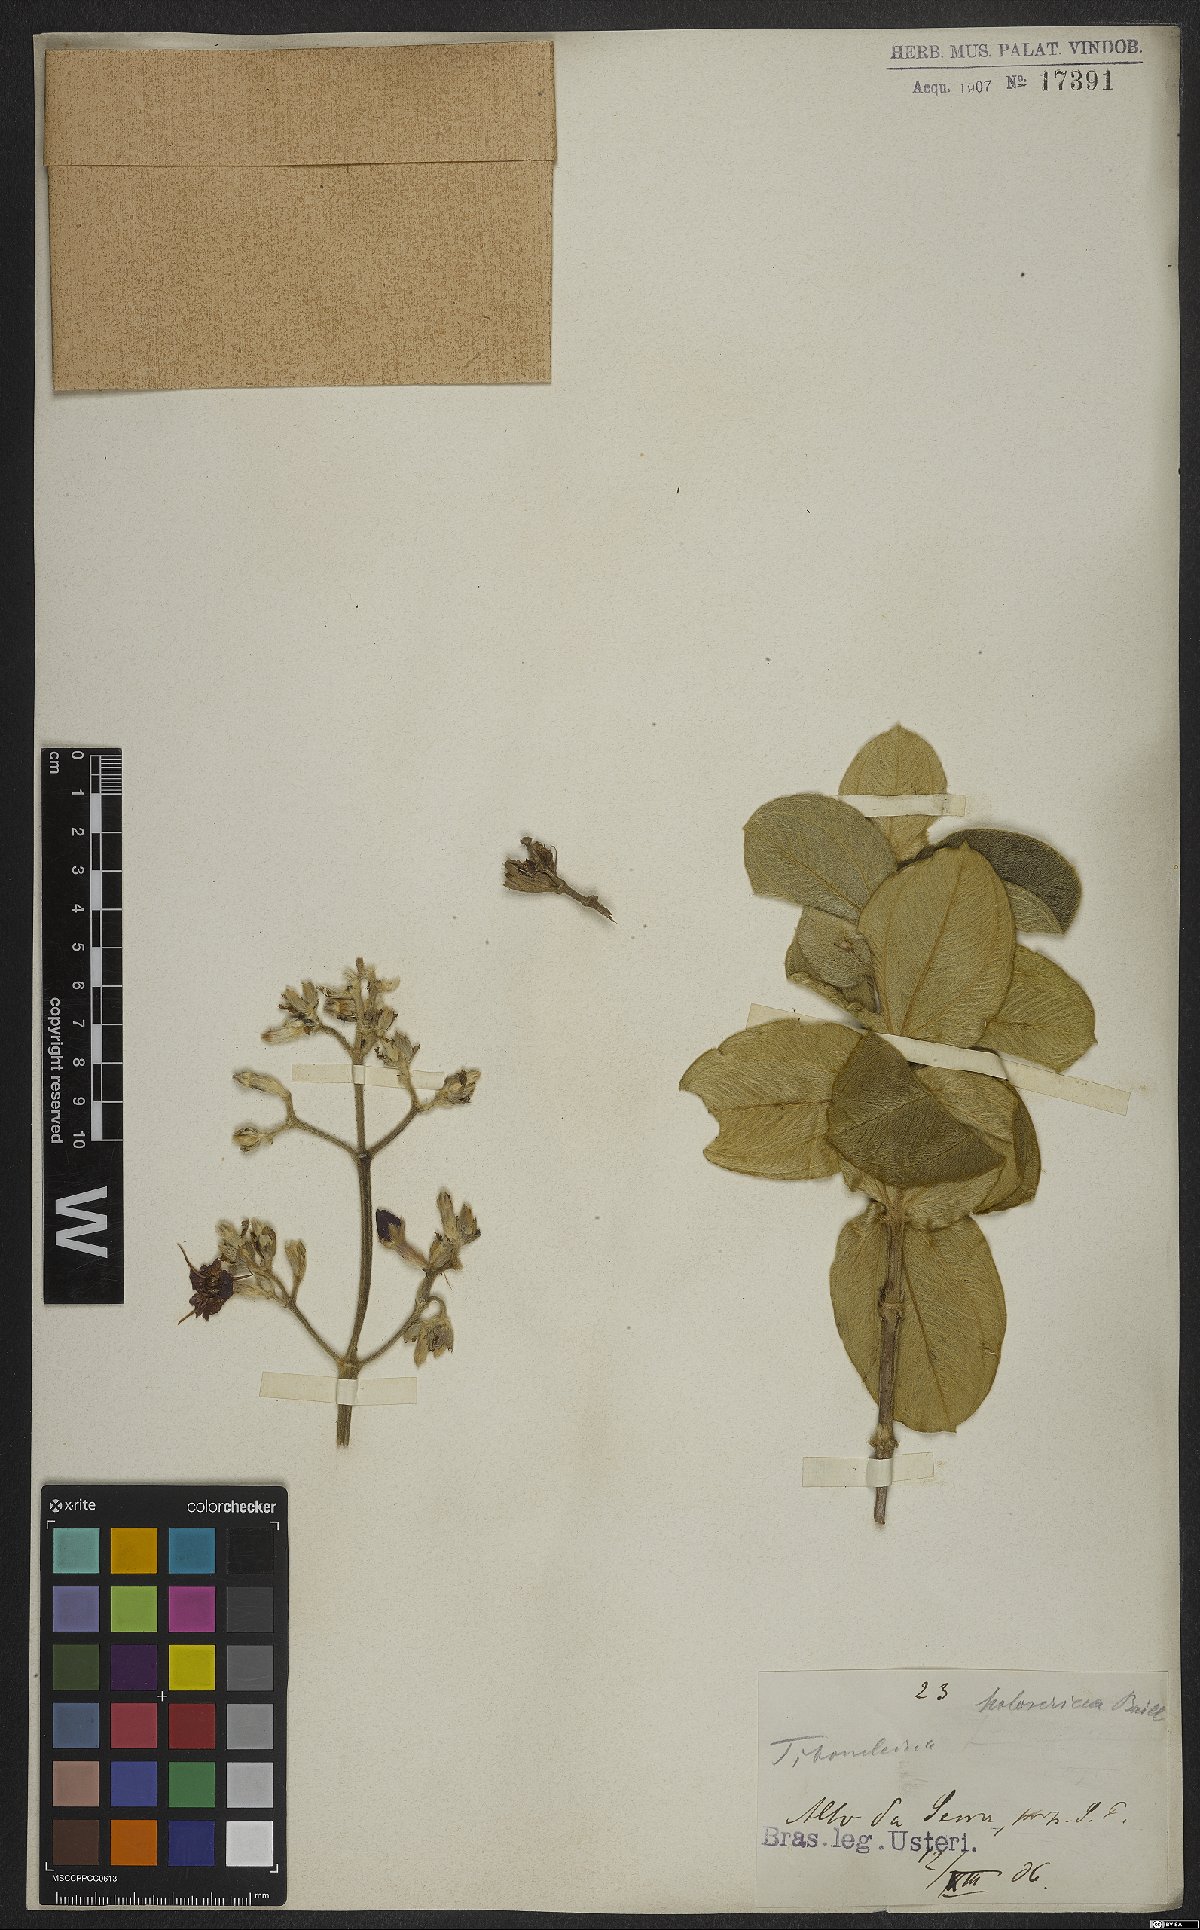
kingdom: Plantae
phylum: Tracheophyta
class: Magnoliopsida
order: Myrtales
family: Melastomataceae
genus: Pleroma
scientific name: Pleroma clavatum
